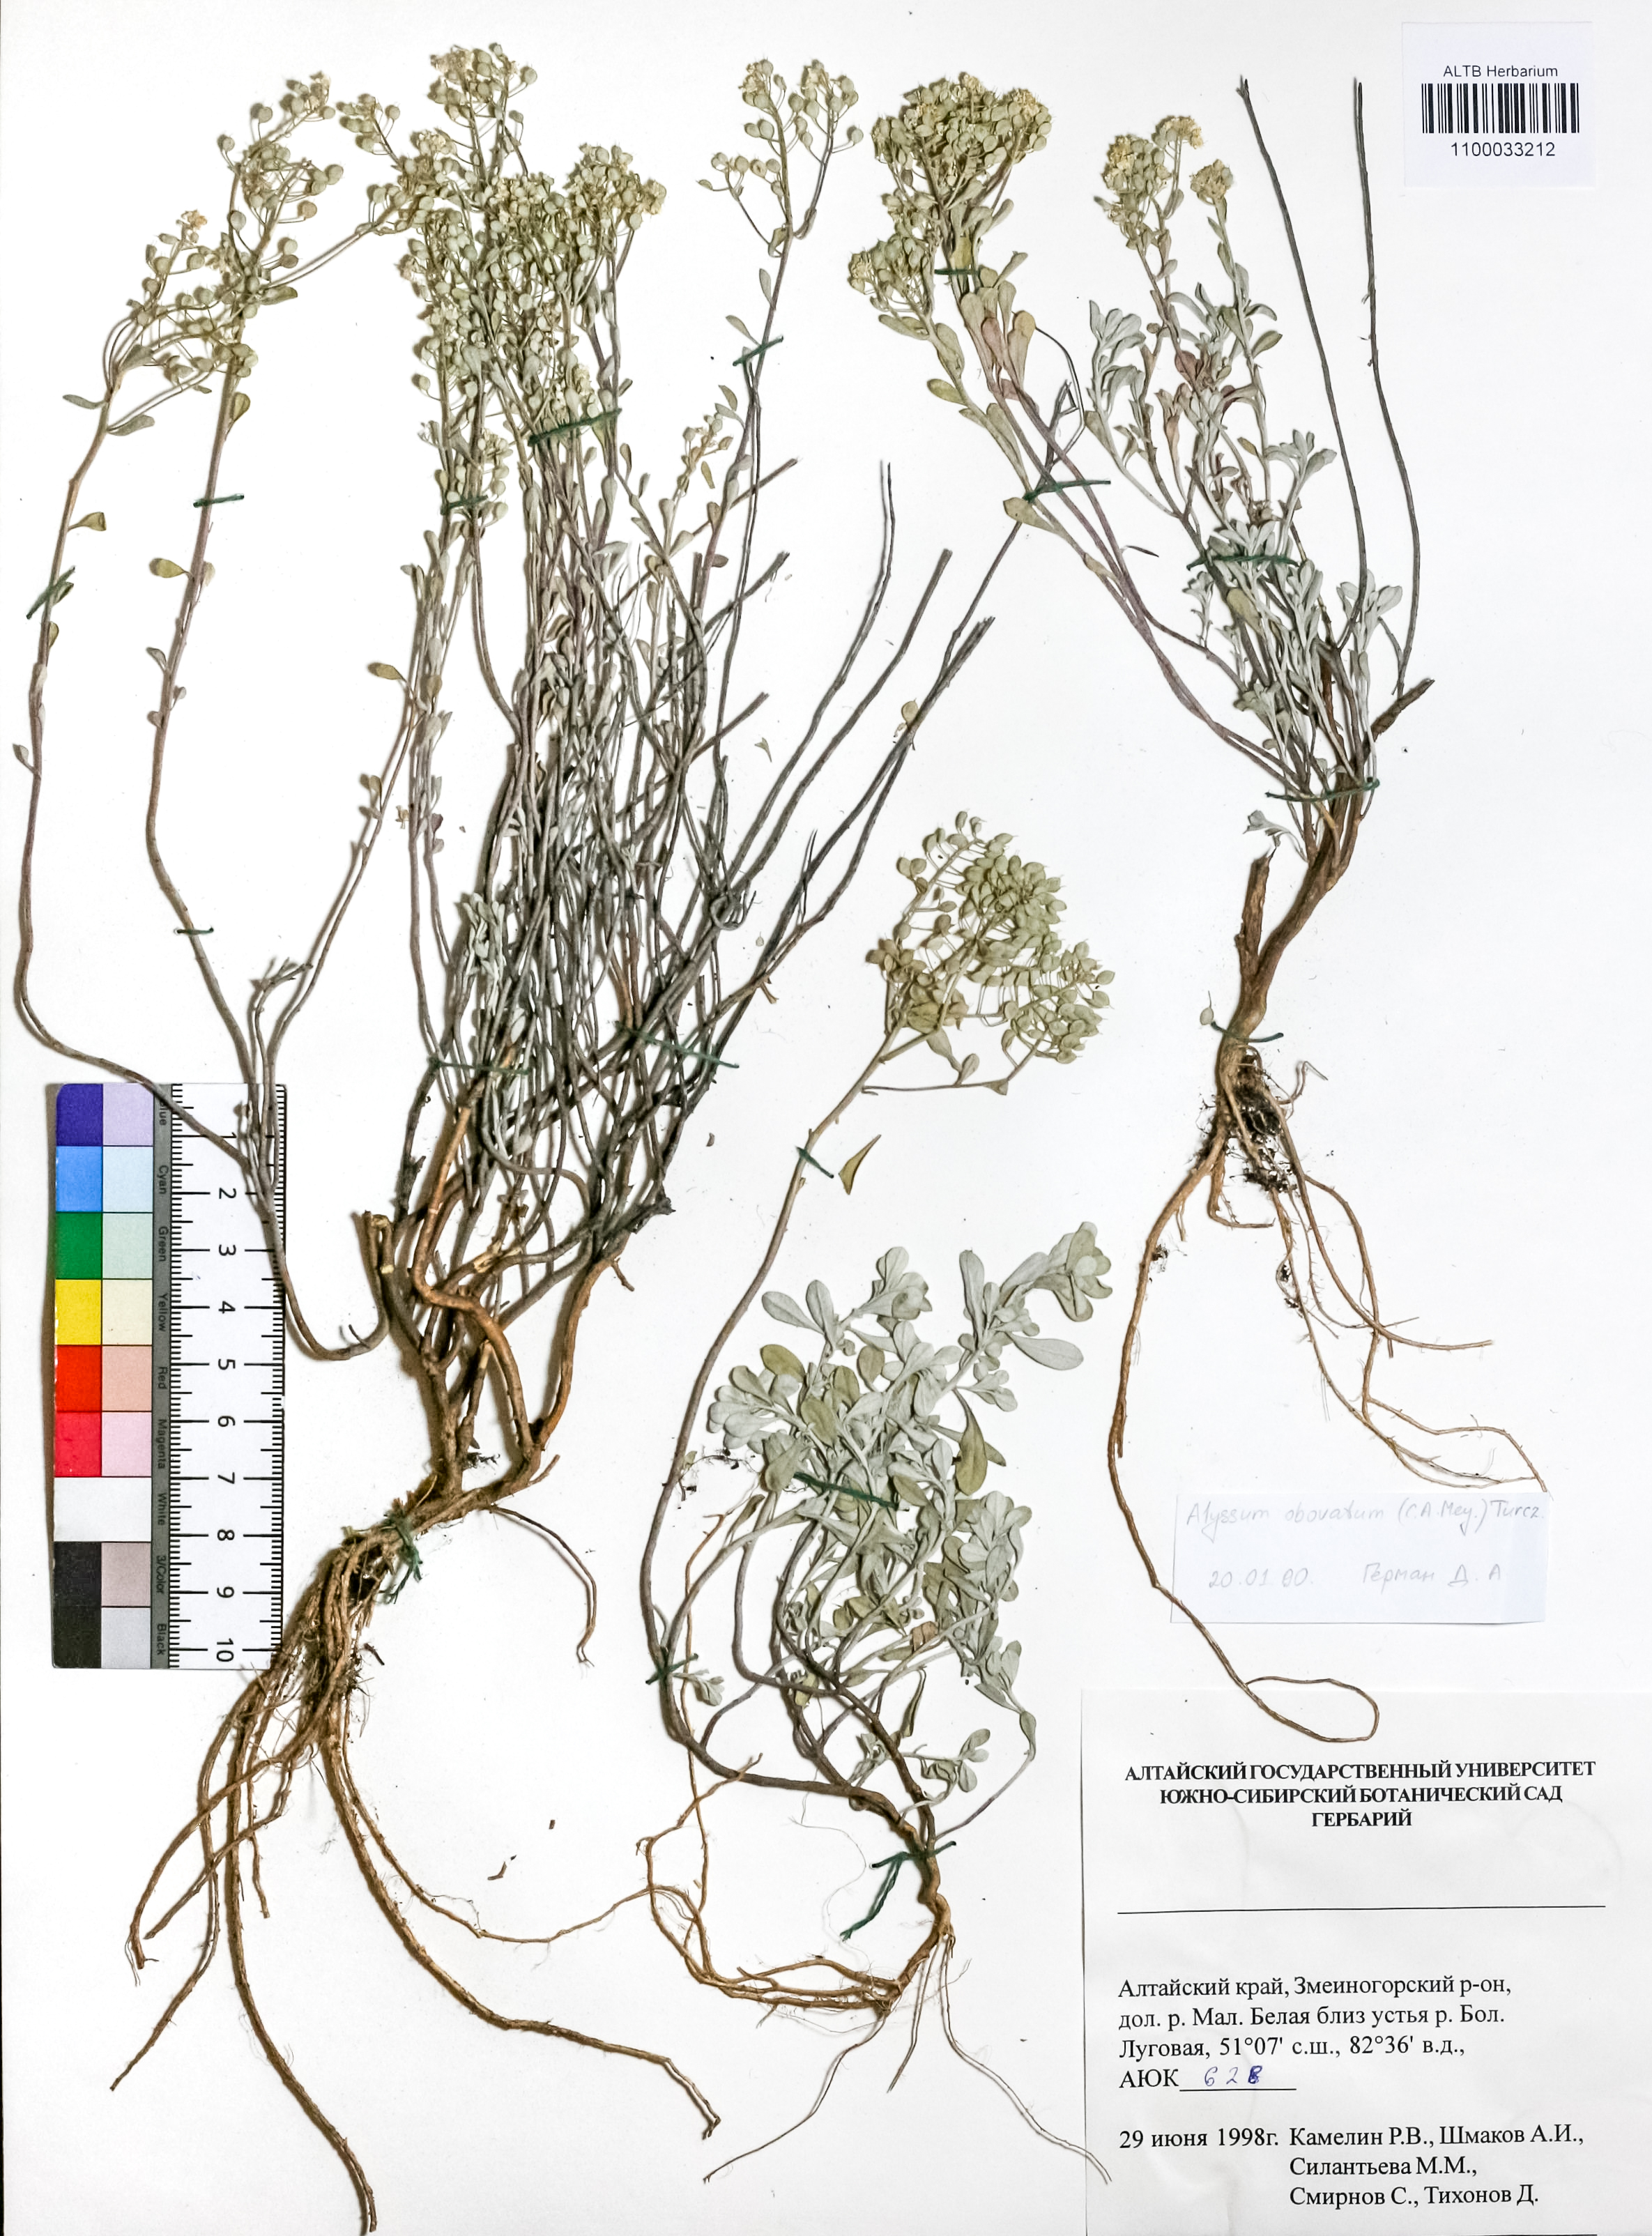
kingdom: Plantae
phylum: Tracheophyta
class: Magnoliopsida
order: Brassicales
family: Brassicaceae
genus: Odontarrhena
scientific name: Odontarrhena obovata
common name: American alyssum
